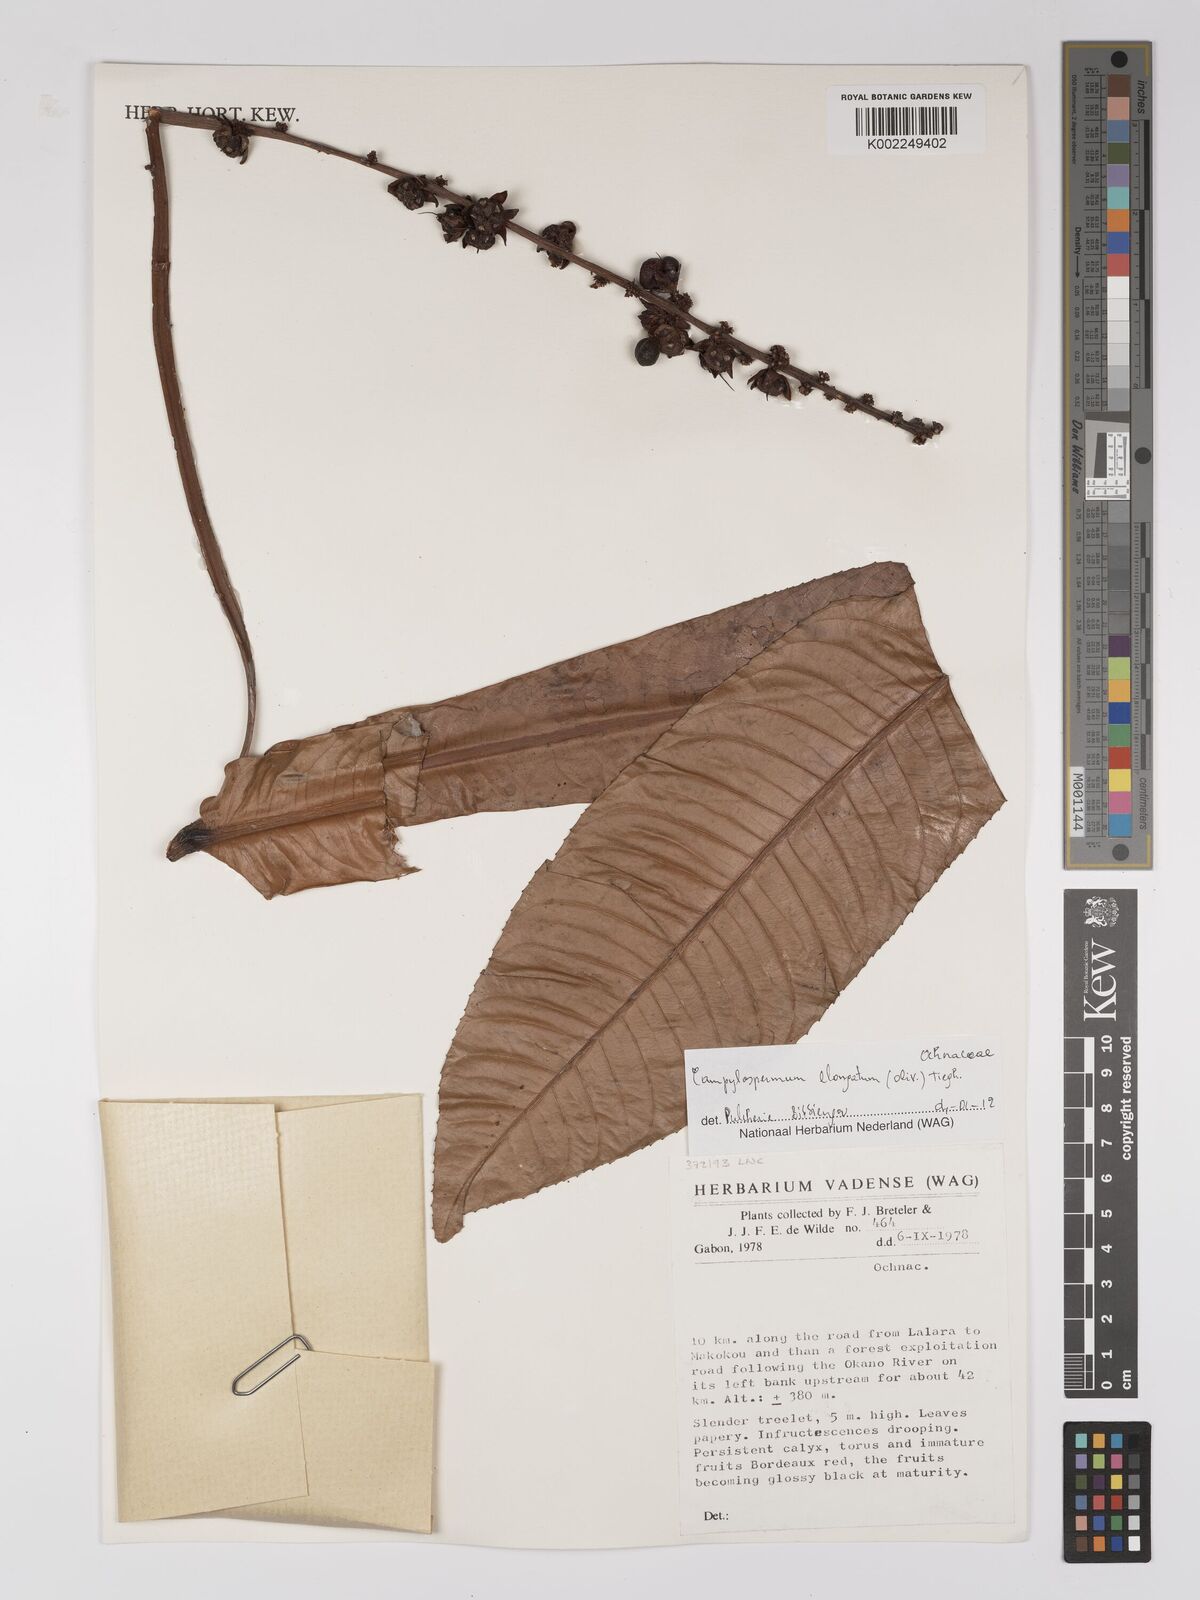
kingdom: Plantae
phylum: Tracheophyta
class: Magnoliopsida
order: Malpighiales
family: Ochnaceae
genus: Gomphia
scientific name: Gomphia elongata
